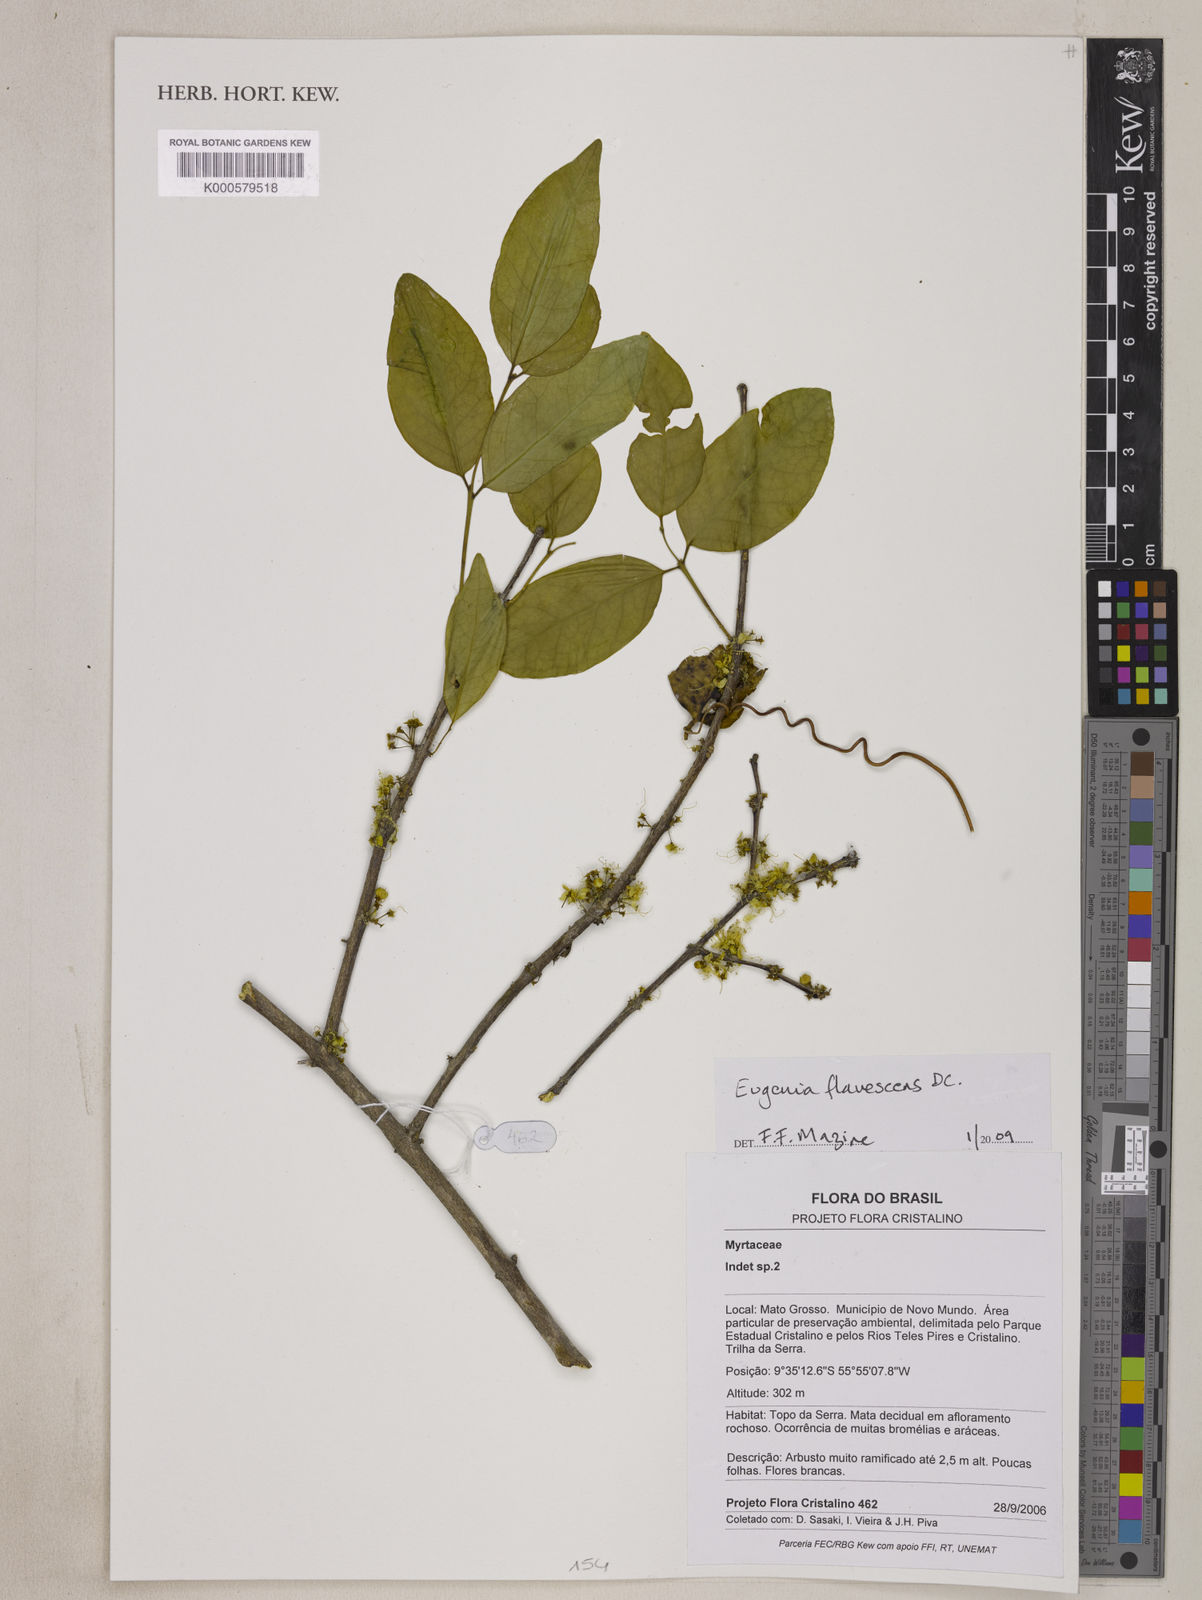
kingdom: Plantae
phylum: Tracheophyta
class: Magnoliopsida
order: Myrtales
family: Myrtaceae
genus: Eugenia
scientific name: Eugenia flavescens
